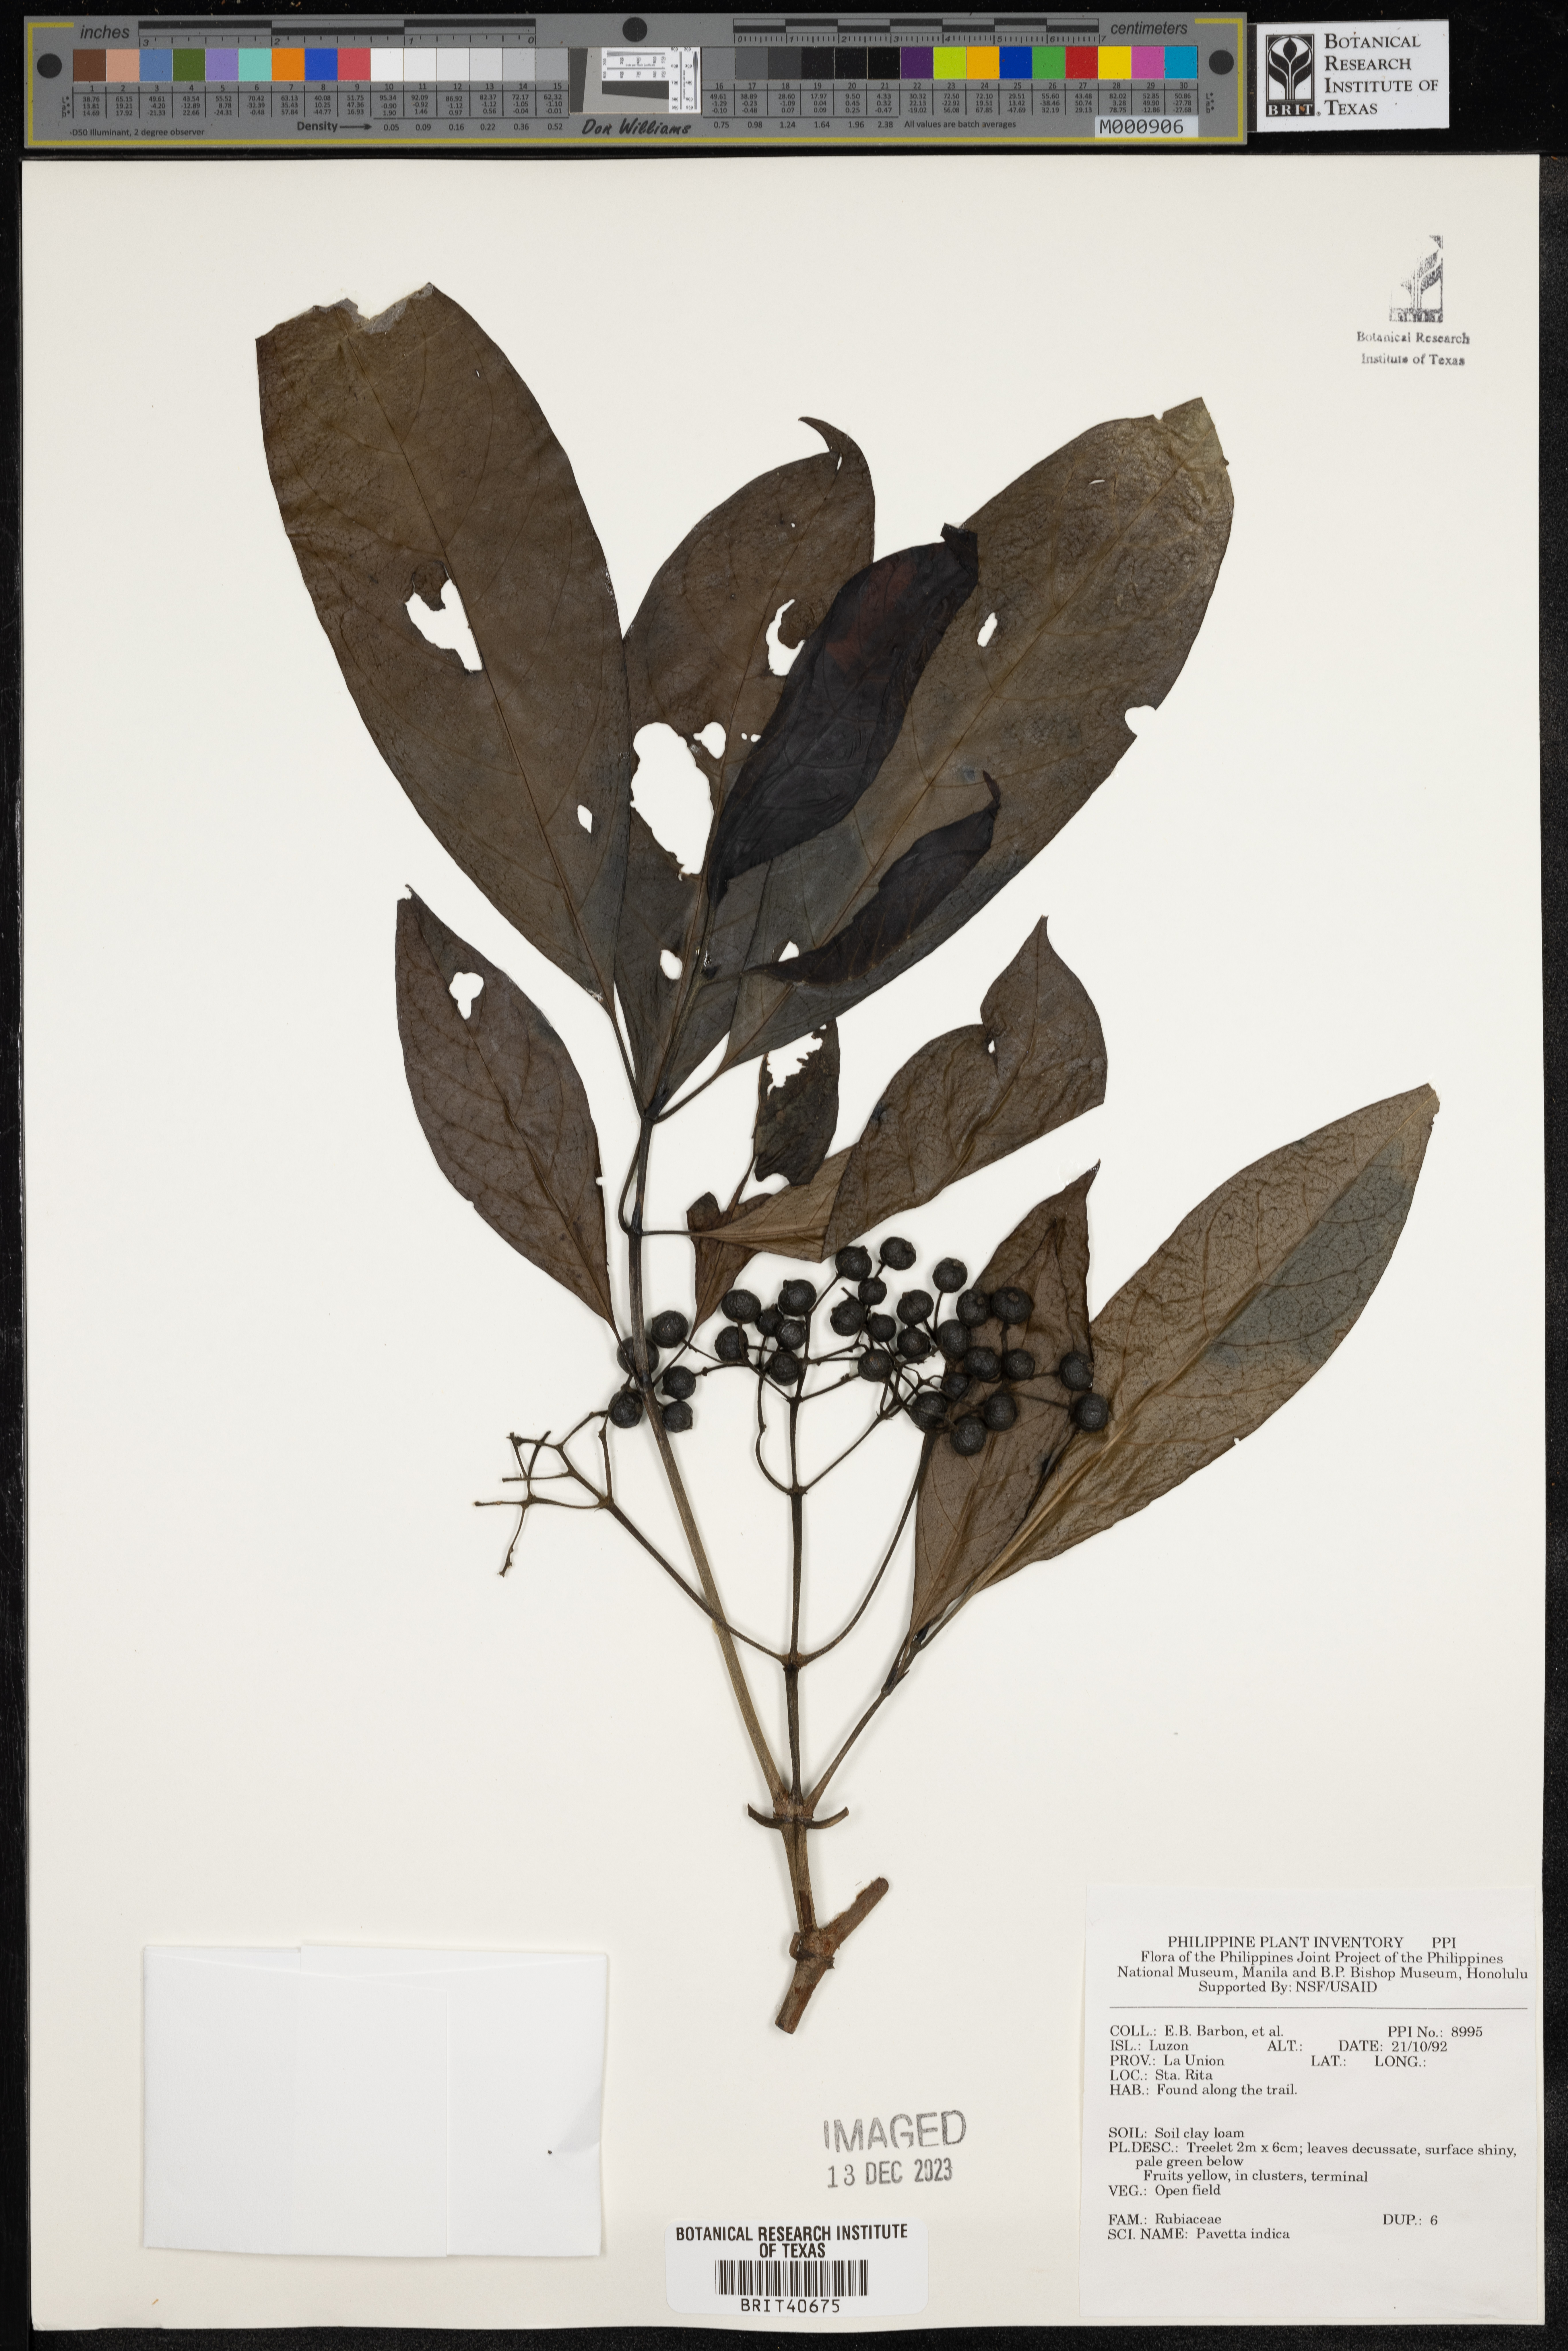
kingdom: Plantae
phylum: Tracheophyta
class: Magnoliopsida
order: Gentianales
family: Rubiaceae
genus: Pavetta
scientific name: Pavetta indica
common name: Indian pavetta
